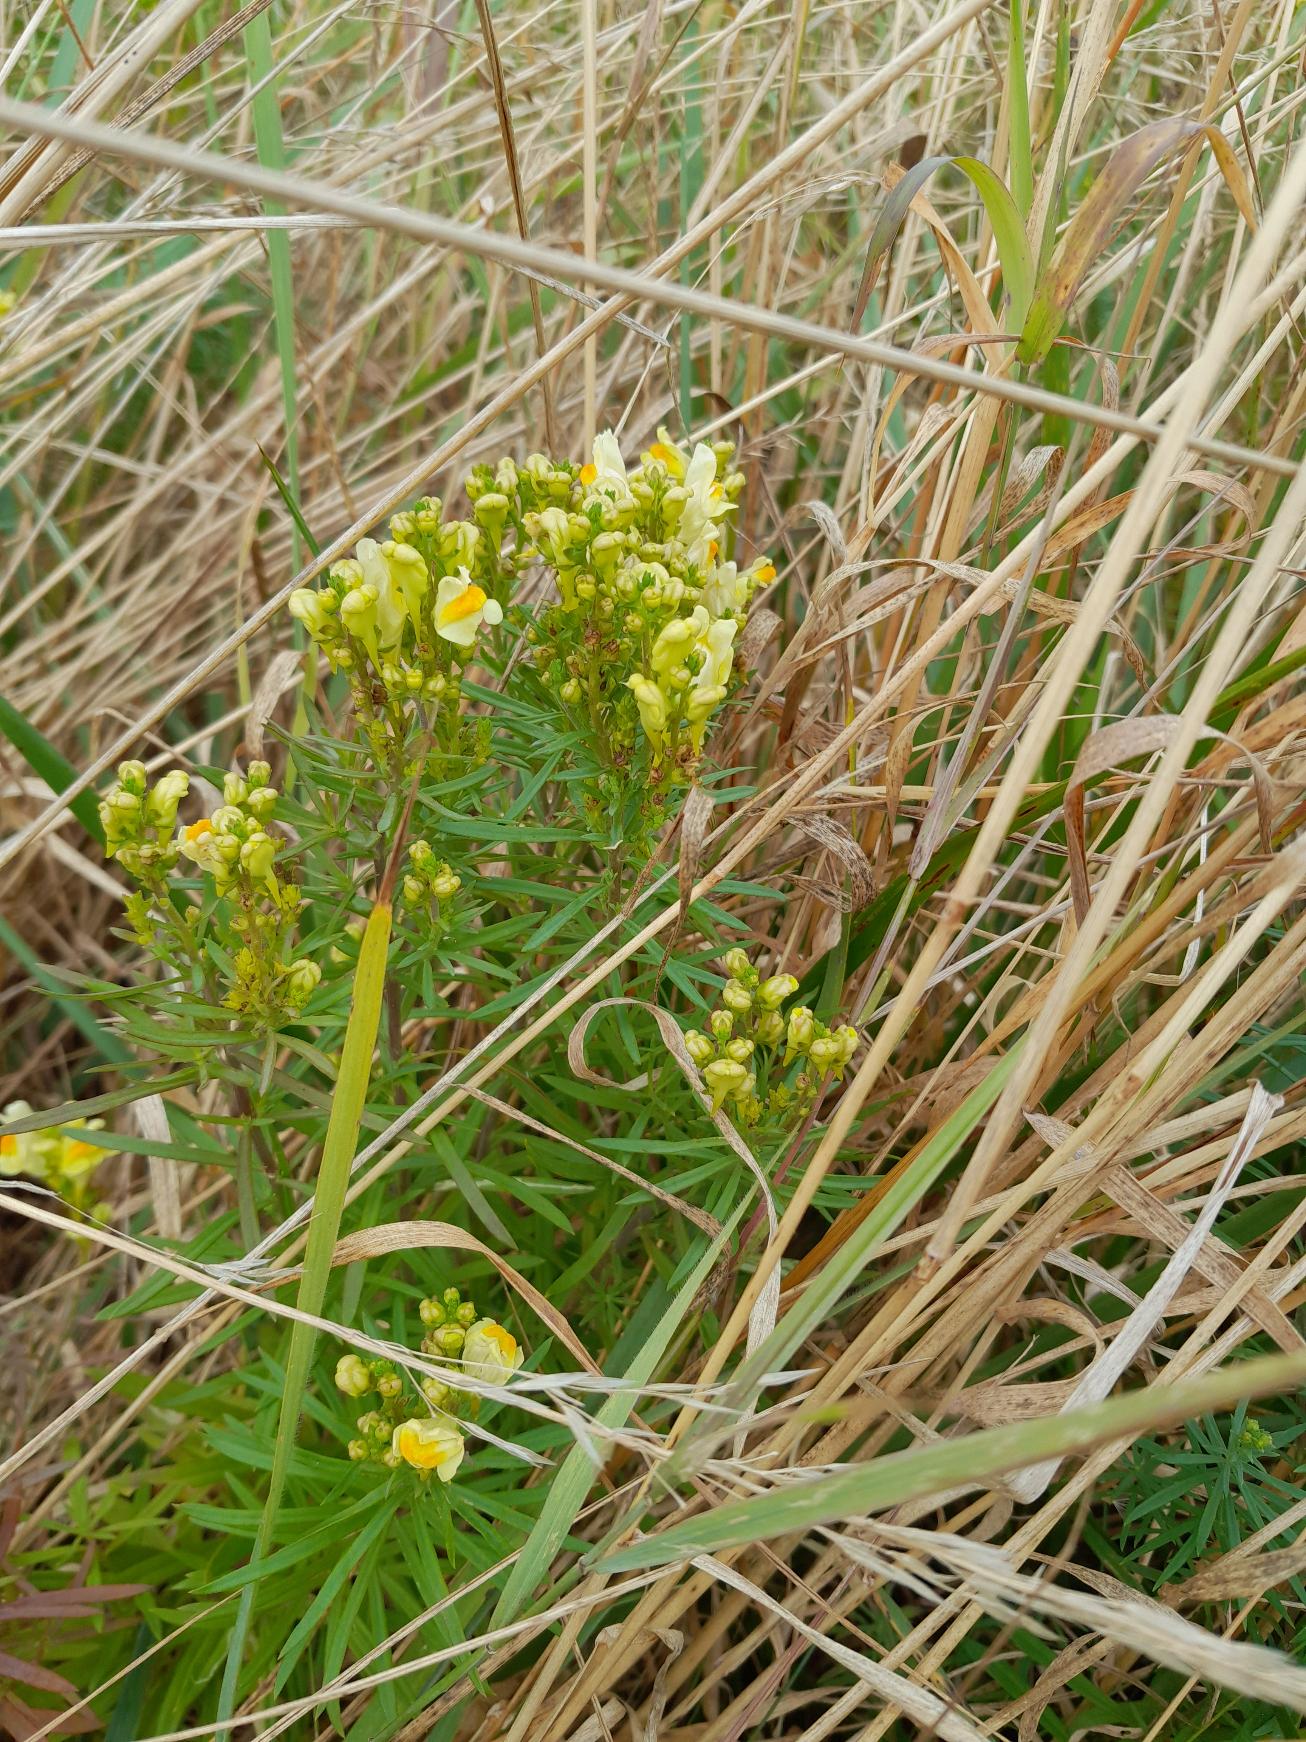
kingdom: Plantae
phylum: Tracheophyta
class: Magnoliopsida
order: Lamiales
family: Plantaginaceae
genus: Linaria
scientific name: Linaria vulgaris
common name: Almindelig torskemund
